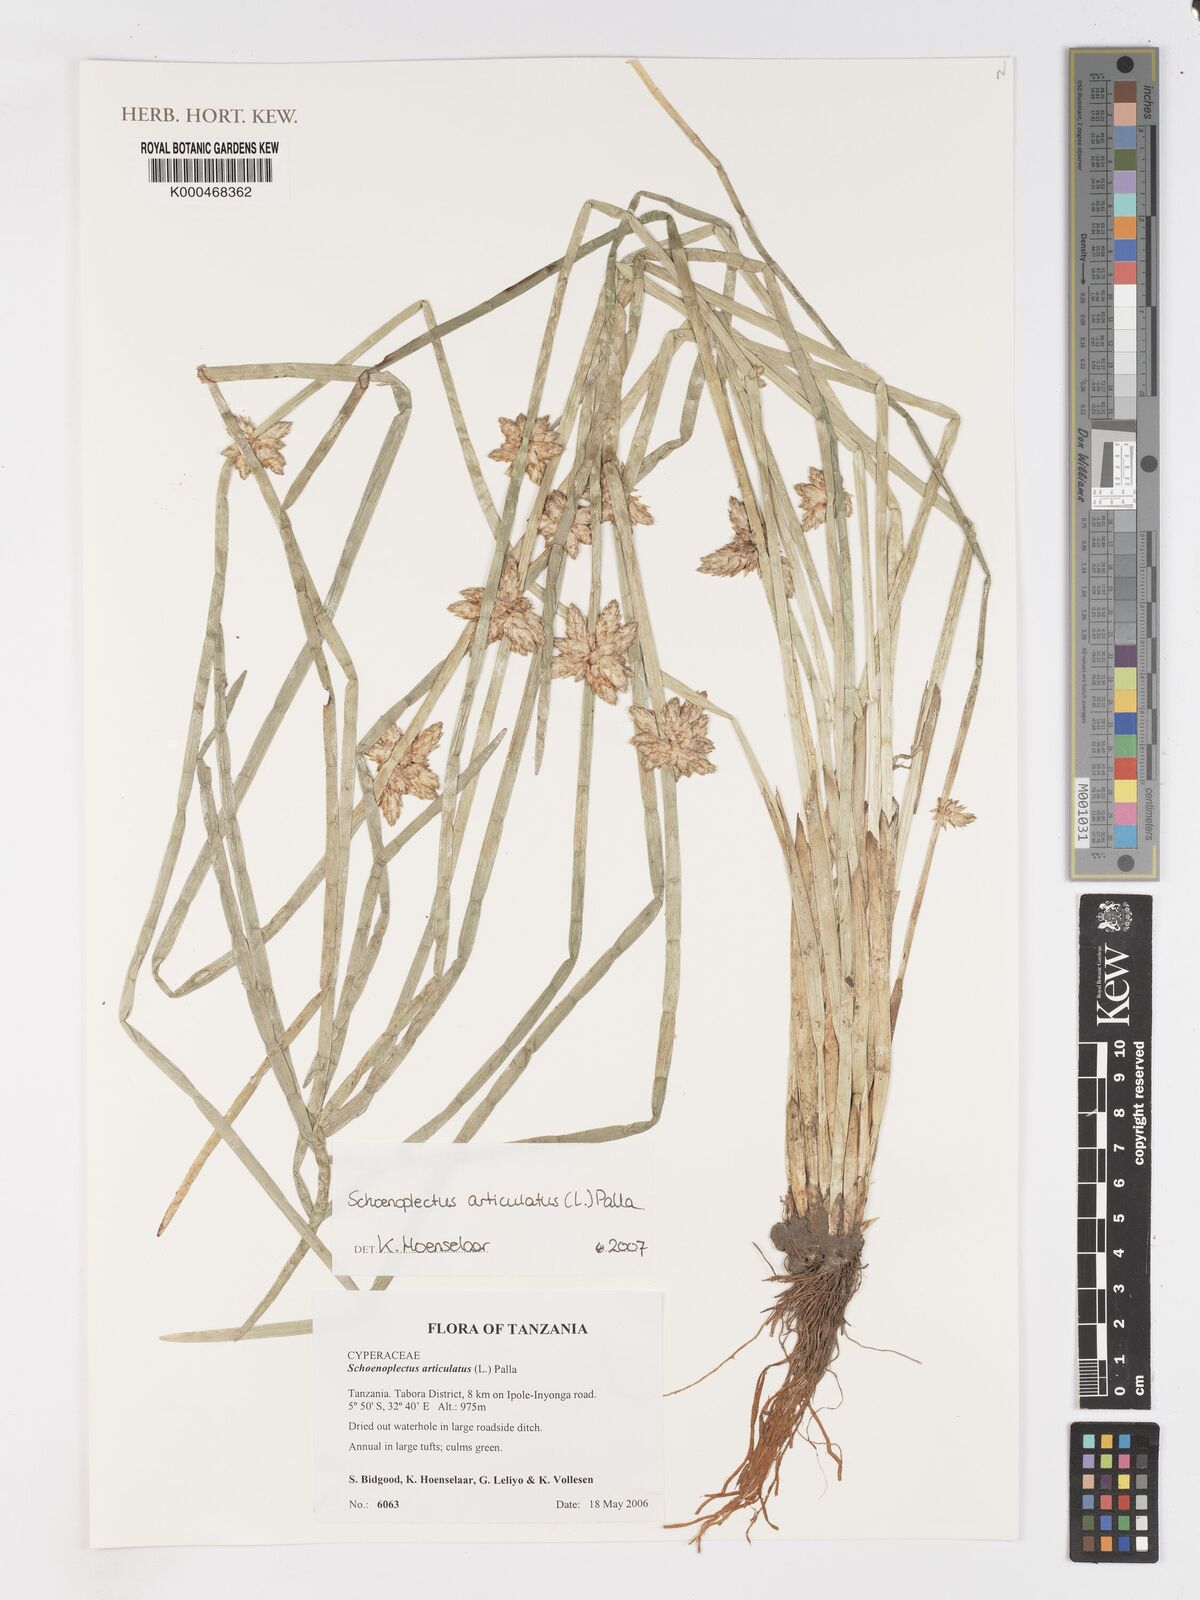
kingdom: Plantae
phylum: Tracheophyta
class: Liliopsida
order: Poales
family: Cyperaceae
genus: Schoenoplectiella
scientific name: Schoenoplectiella articulata
